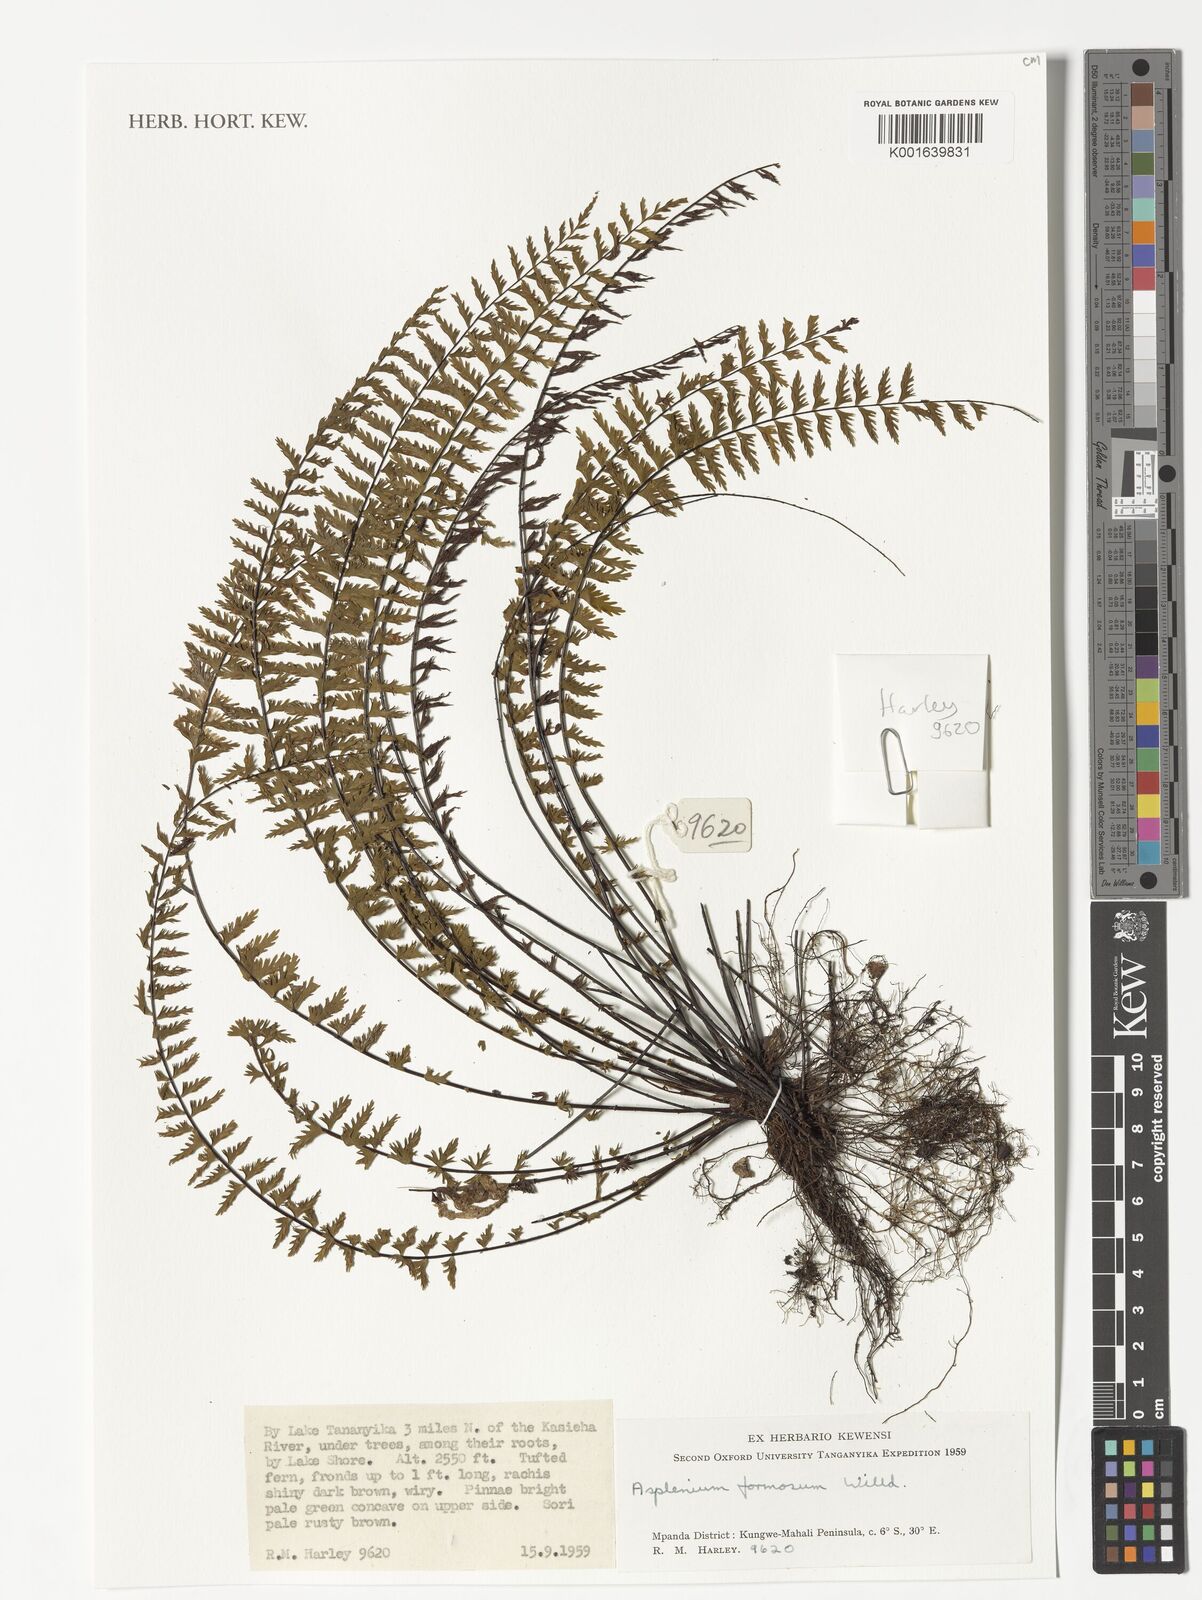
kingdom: Plantae
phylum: Tracheophyta
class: Polypodiopsida
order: Polypodiales
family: Aspleniaceae
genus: Asplenium
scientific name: Asplenium formosum
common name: Showy spleenwort
